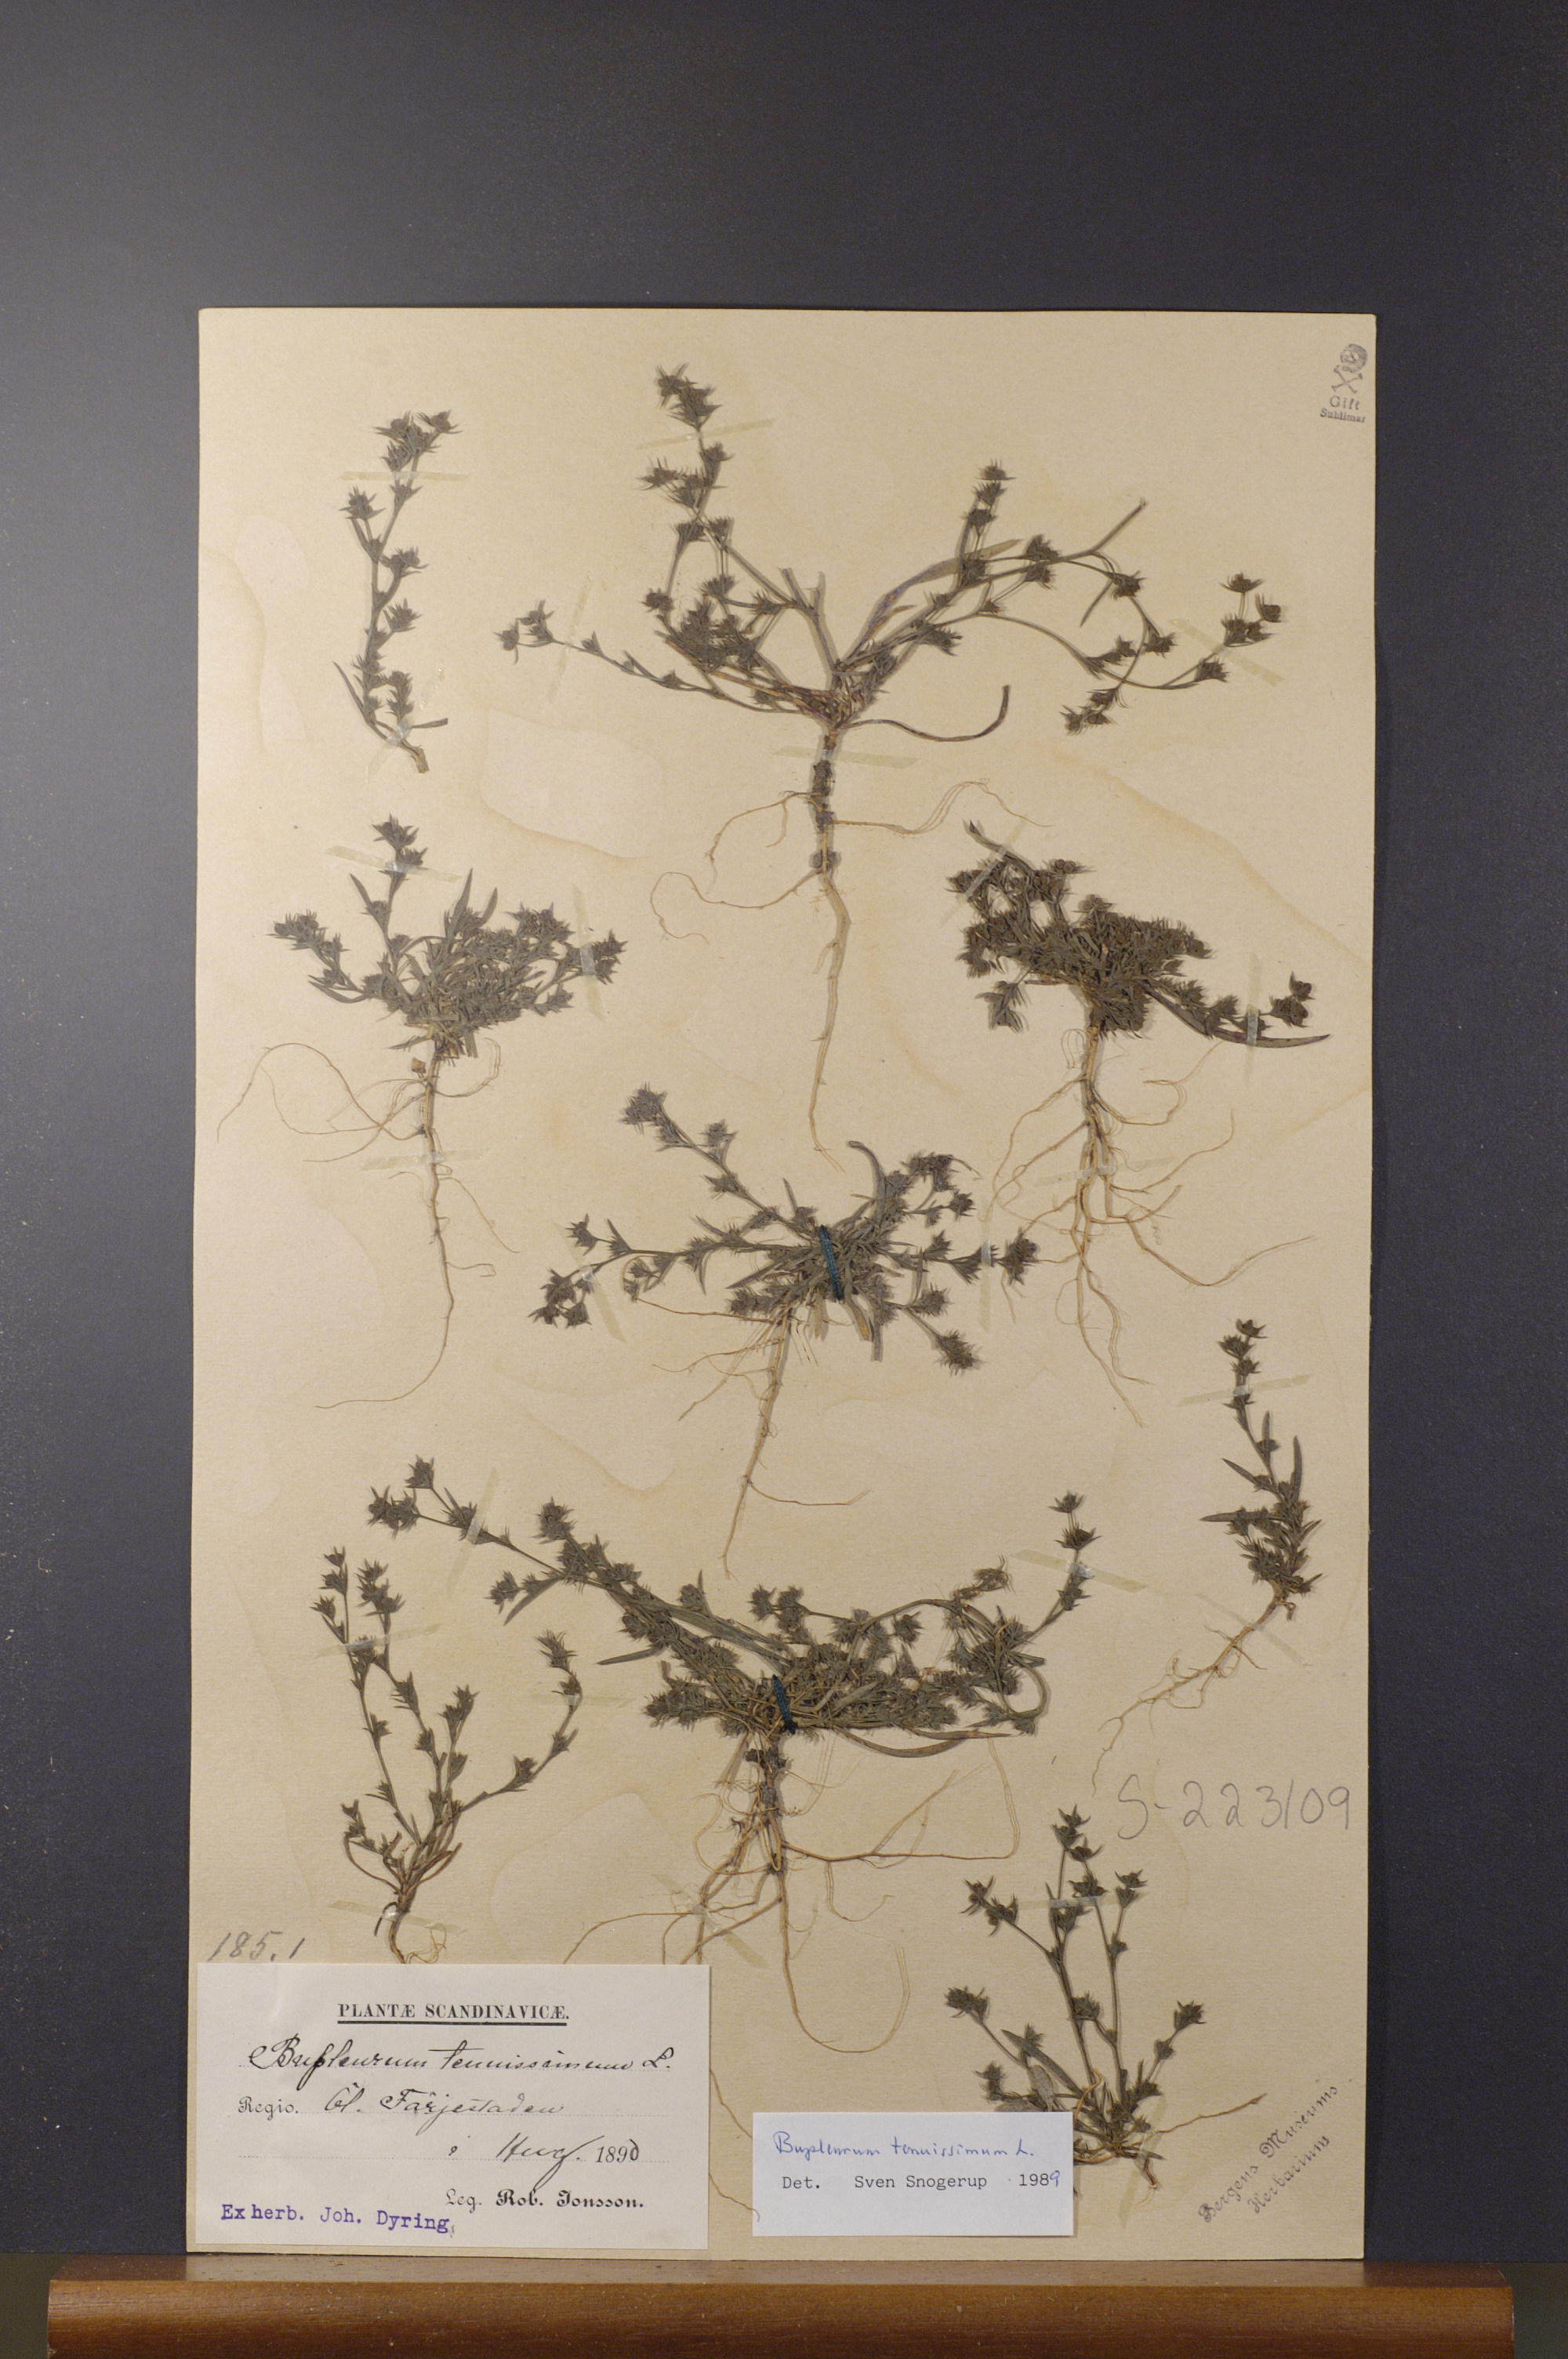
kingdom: Plantae
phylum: Tracheophyta
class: Magnoliopsida
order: Apiales
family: Apiaceae
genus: Bupleurum
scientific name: Bupleurum tenuissimum
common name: Slender hare's-ear
